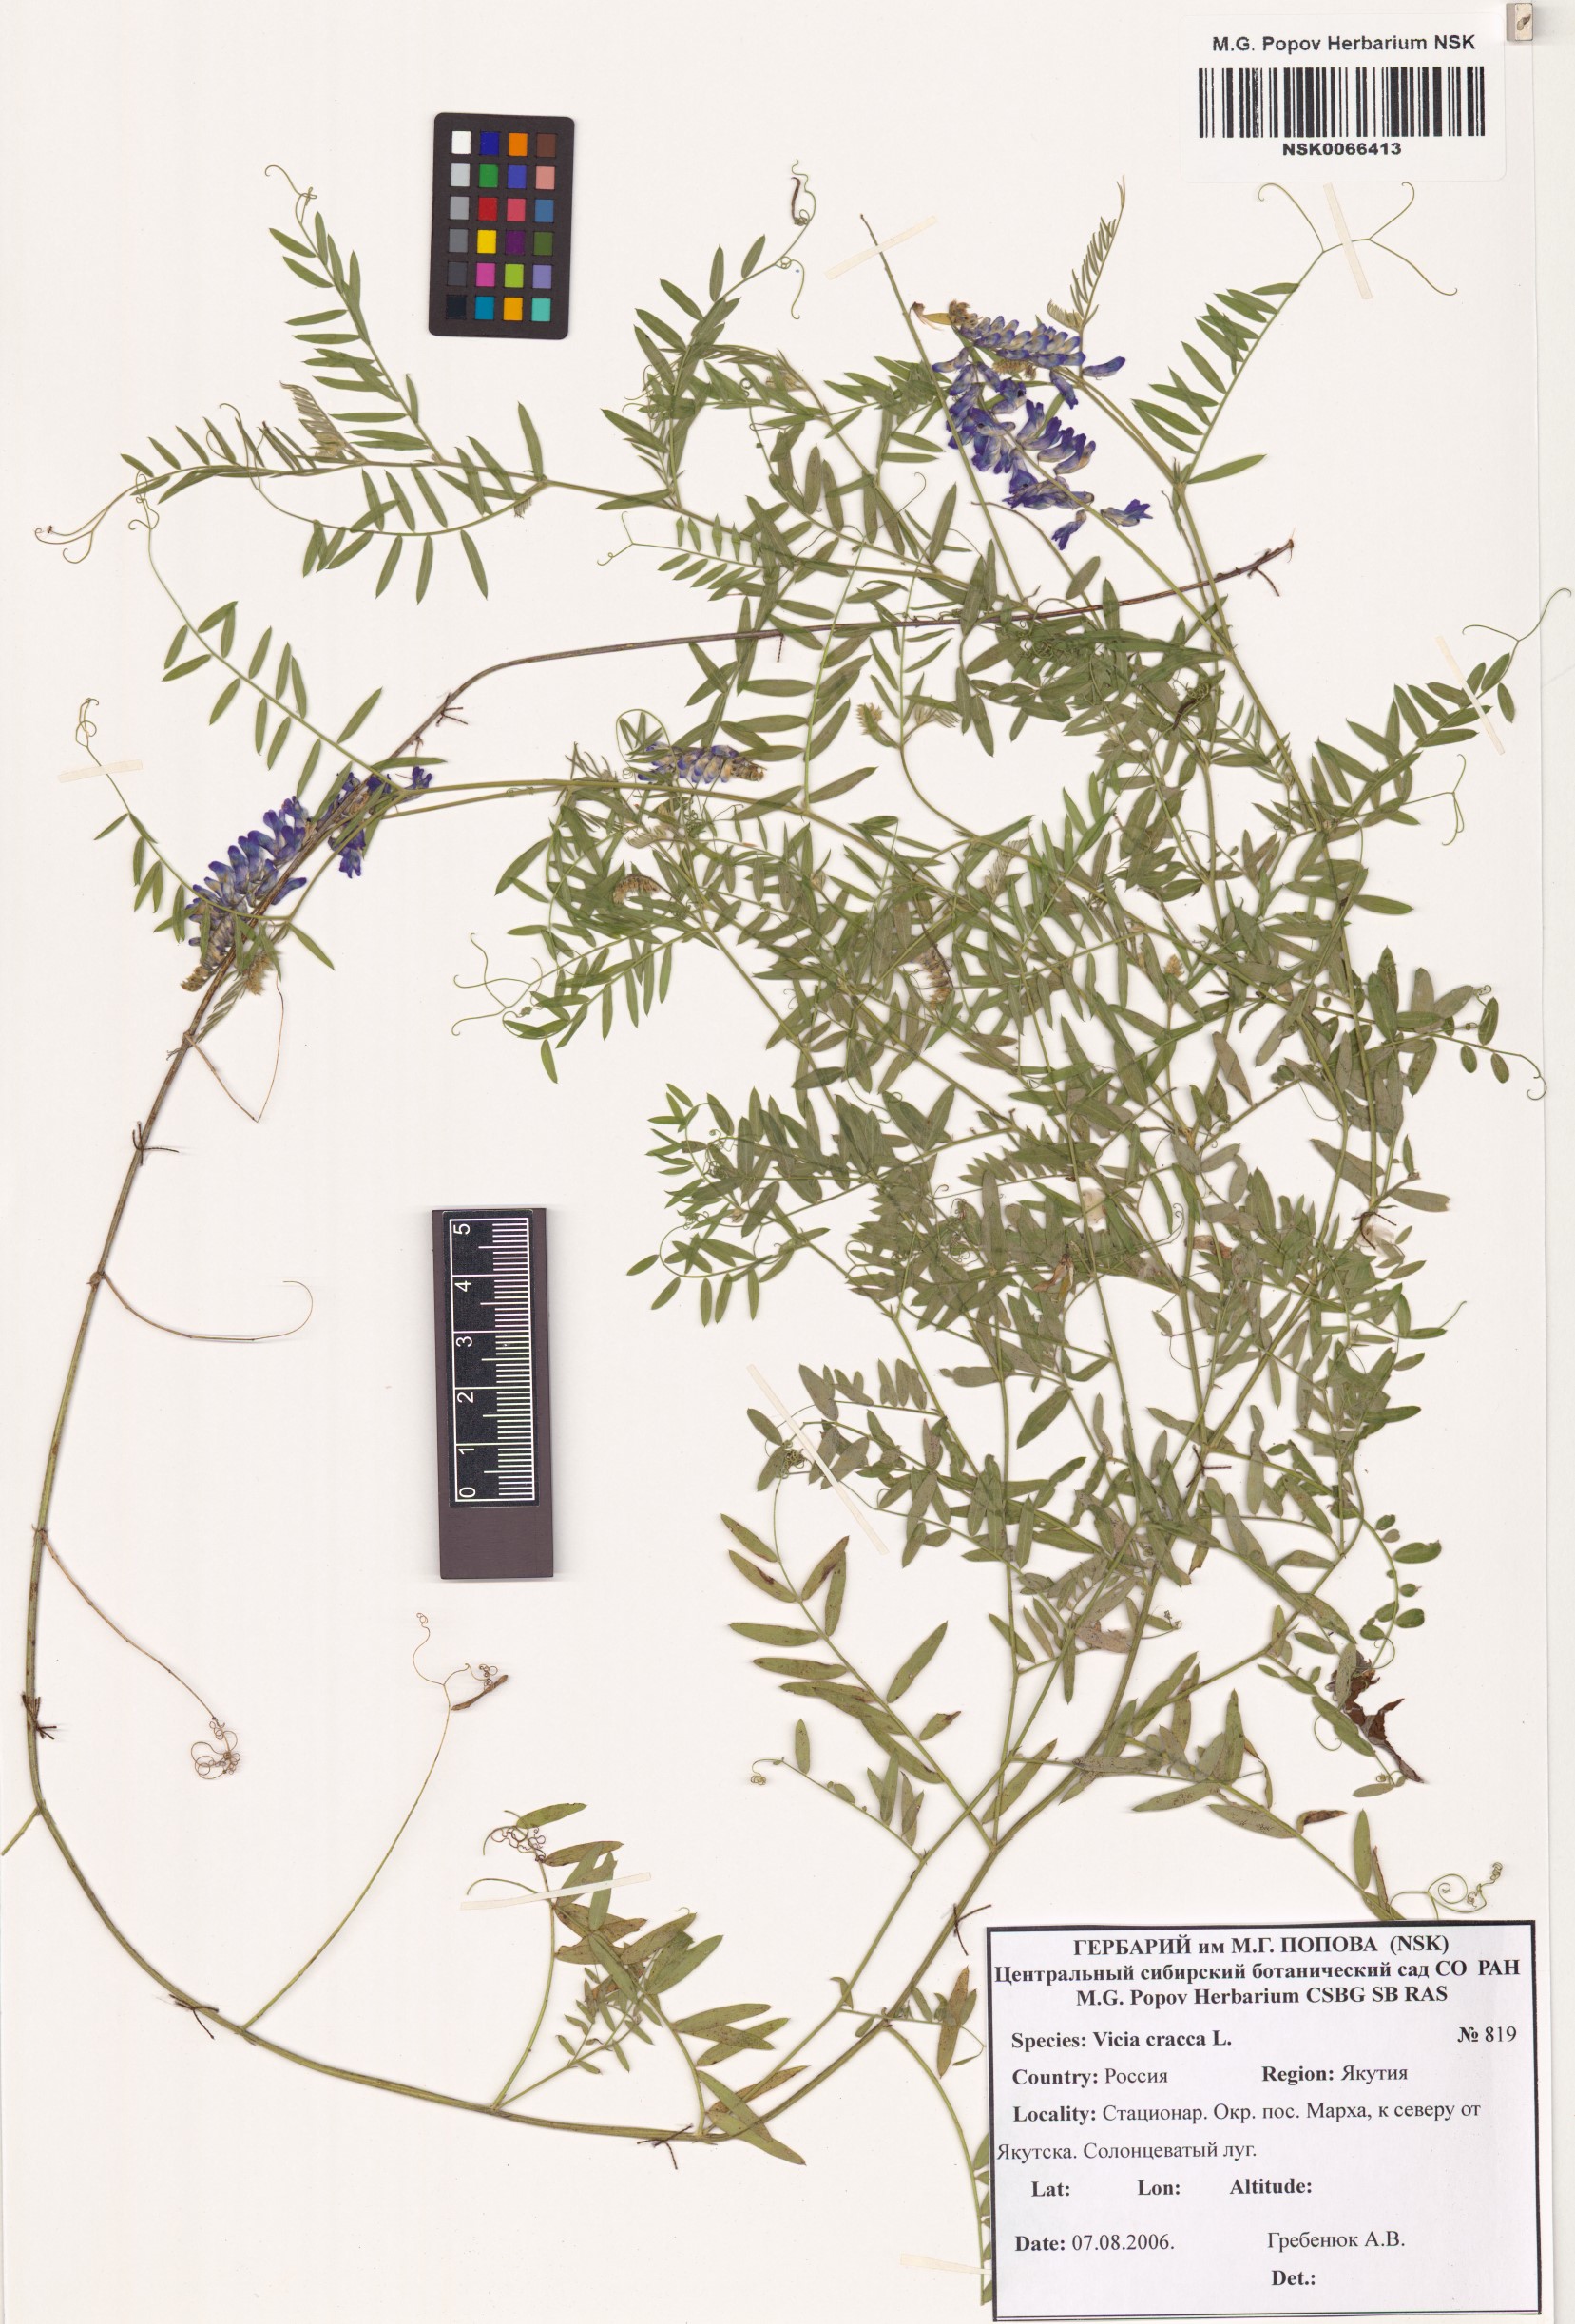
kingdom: Plantae
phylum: Tracheophyta
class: Magnoliopsida
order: Fabales
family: Fabaceae
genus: Vicia
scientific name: Vicia cracca
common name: Bird vetch
